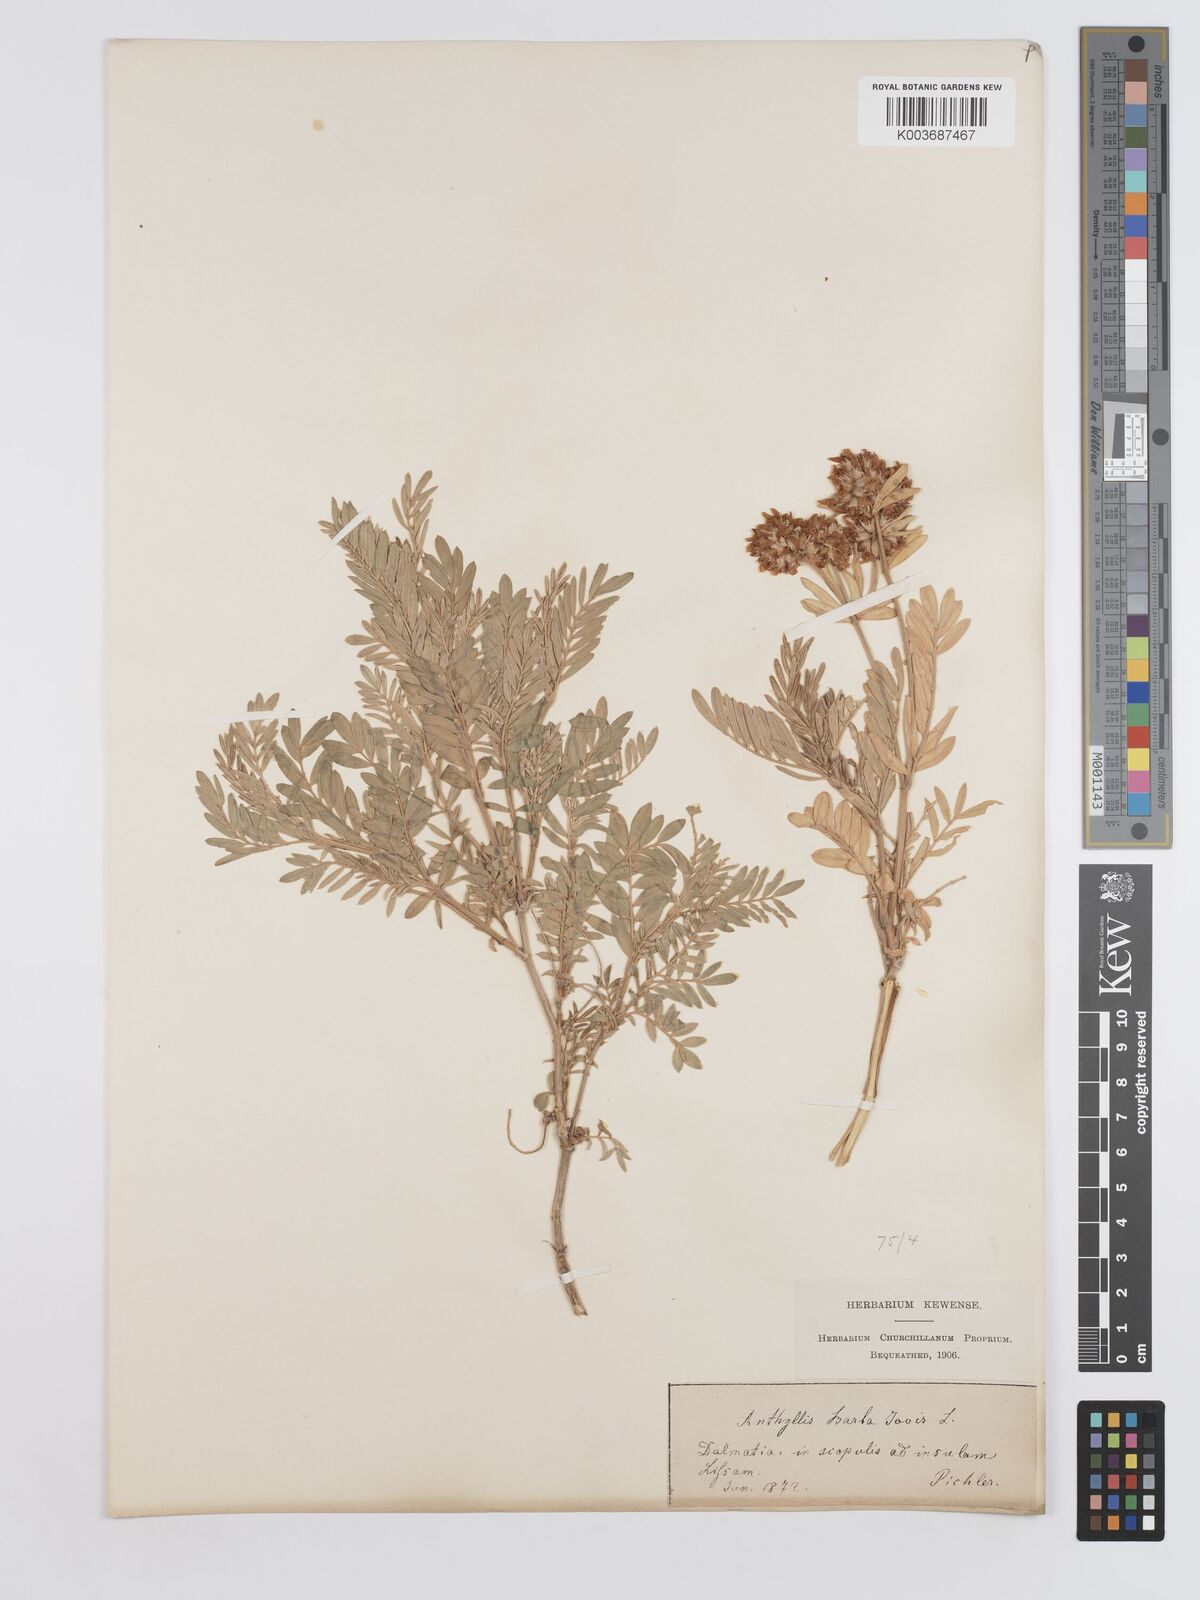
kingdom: Plantae
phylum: Tracheophyta
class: Magnoliopsida
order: Fabales
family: Fabaceae
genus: Anthyllis
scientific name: Anthyllis barba-jovis
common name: Jupiter's-beard
